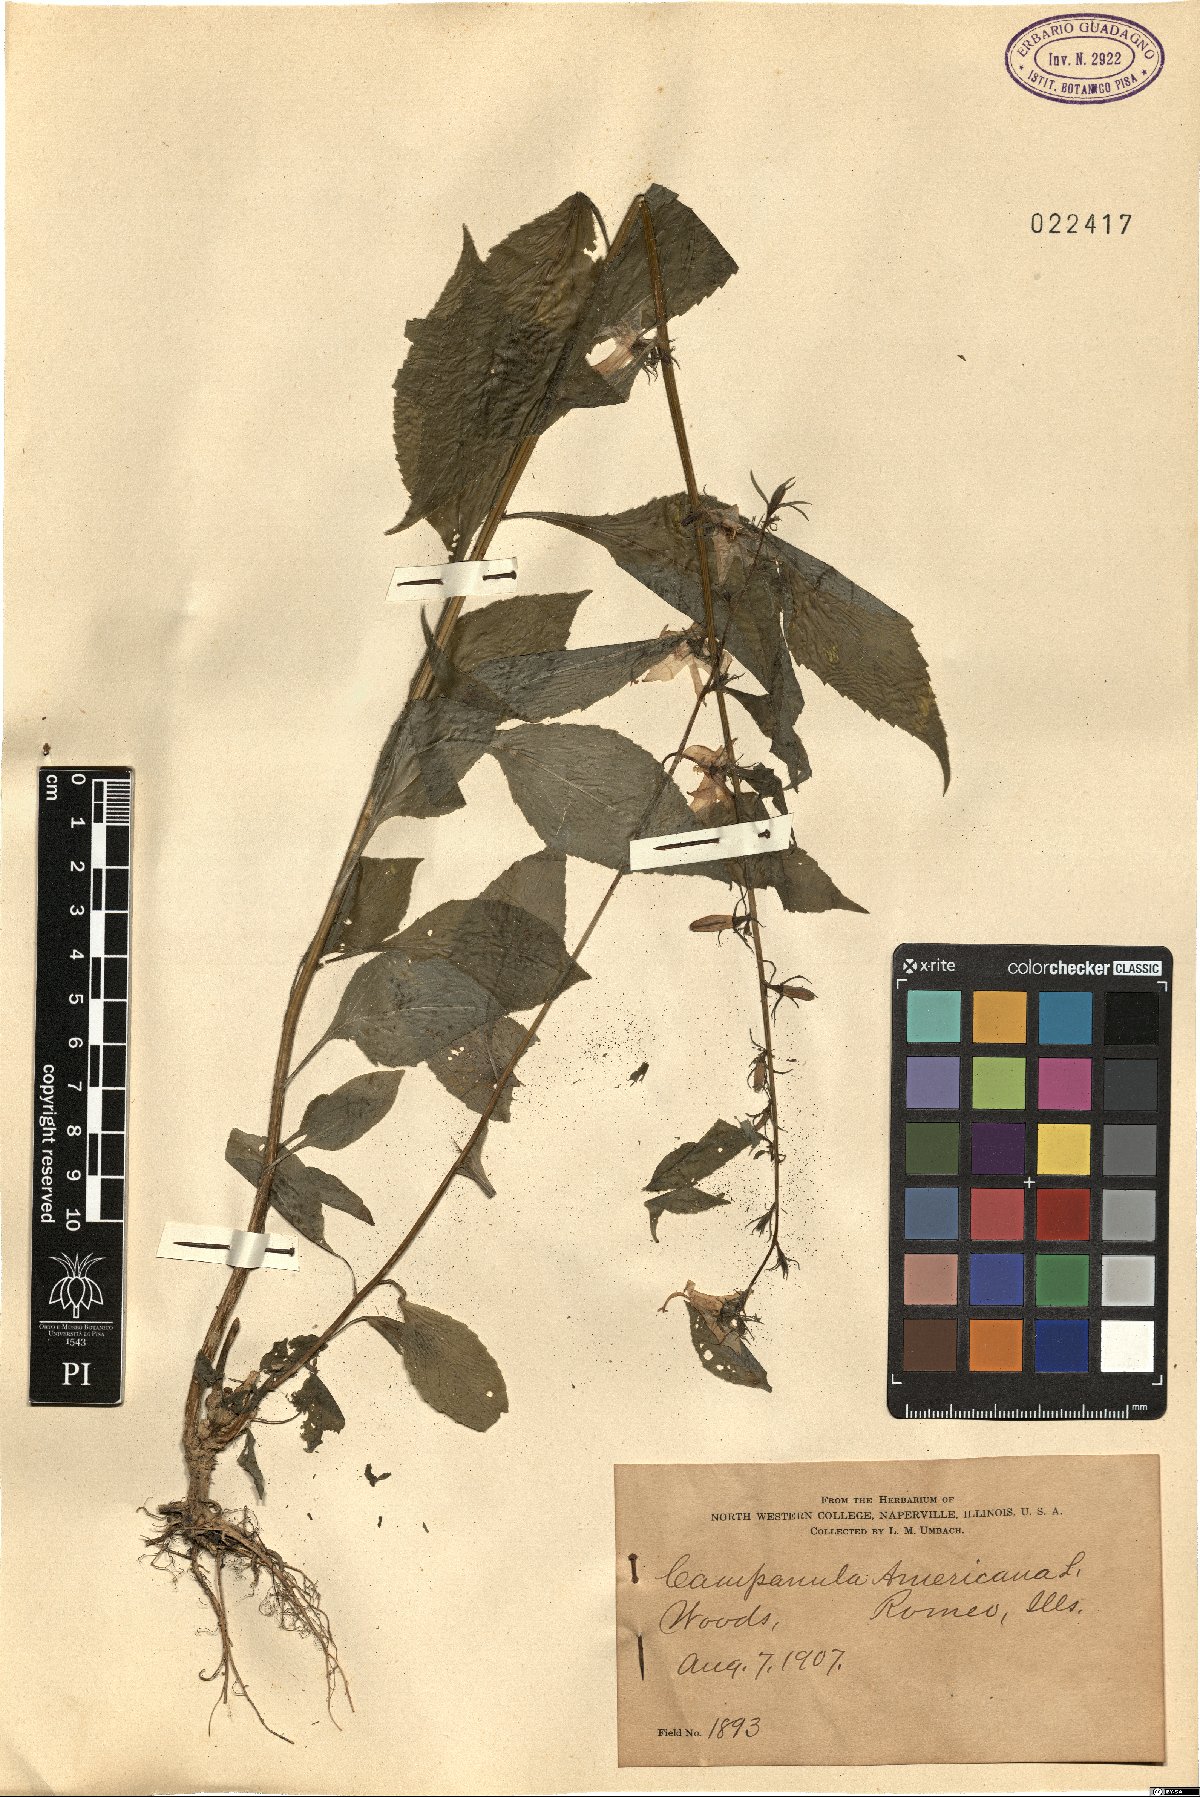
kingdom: Plantae
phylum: Tracheophyta
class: Magnoliopsida
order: Asterales
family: Campanulaceae
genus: Campanulastrum
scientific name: Campanulastrum americanum
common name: American bellflower
